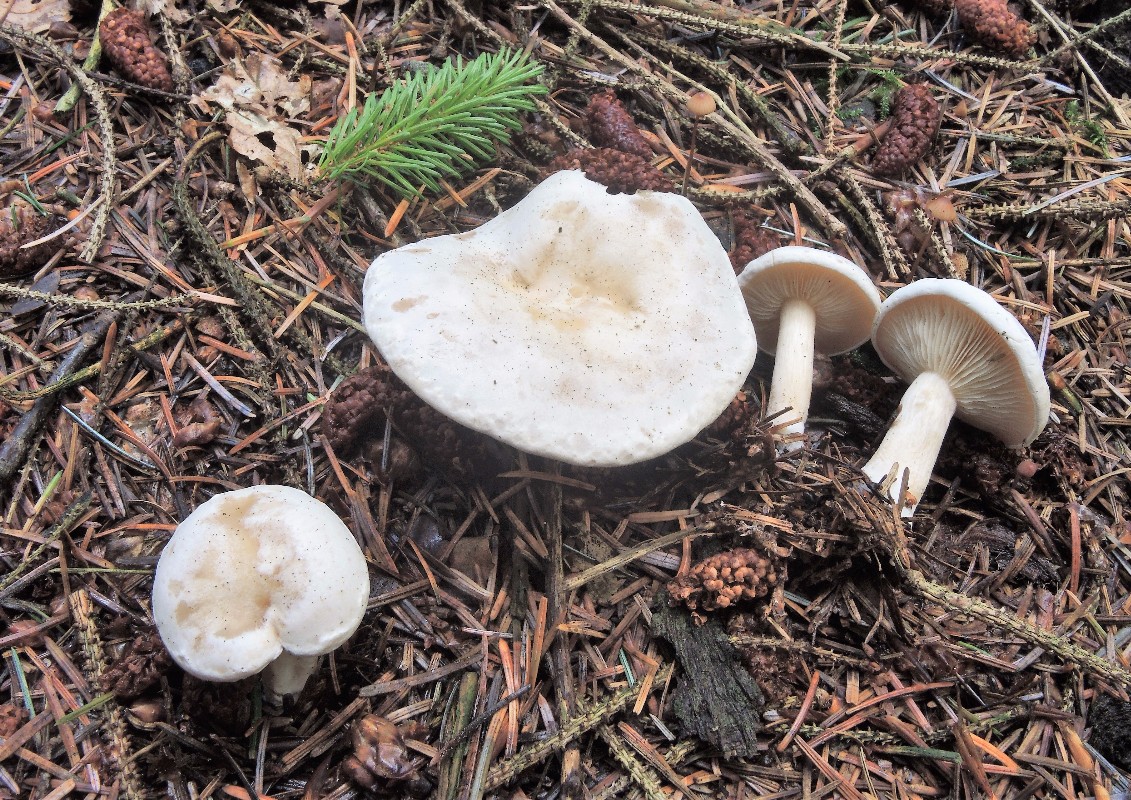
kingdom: Fungi
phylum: Basidiomycota
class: Agaricomycetes
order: Agaricales
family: Tricholomataceae
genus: Clitocybe
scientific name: Clitocybe phyllophila
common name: løv-tragthat
